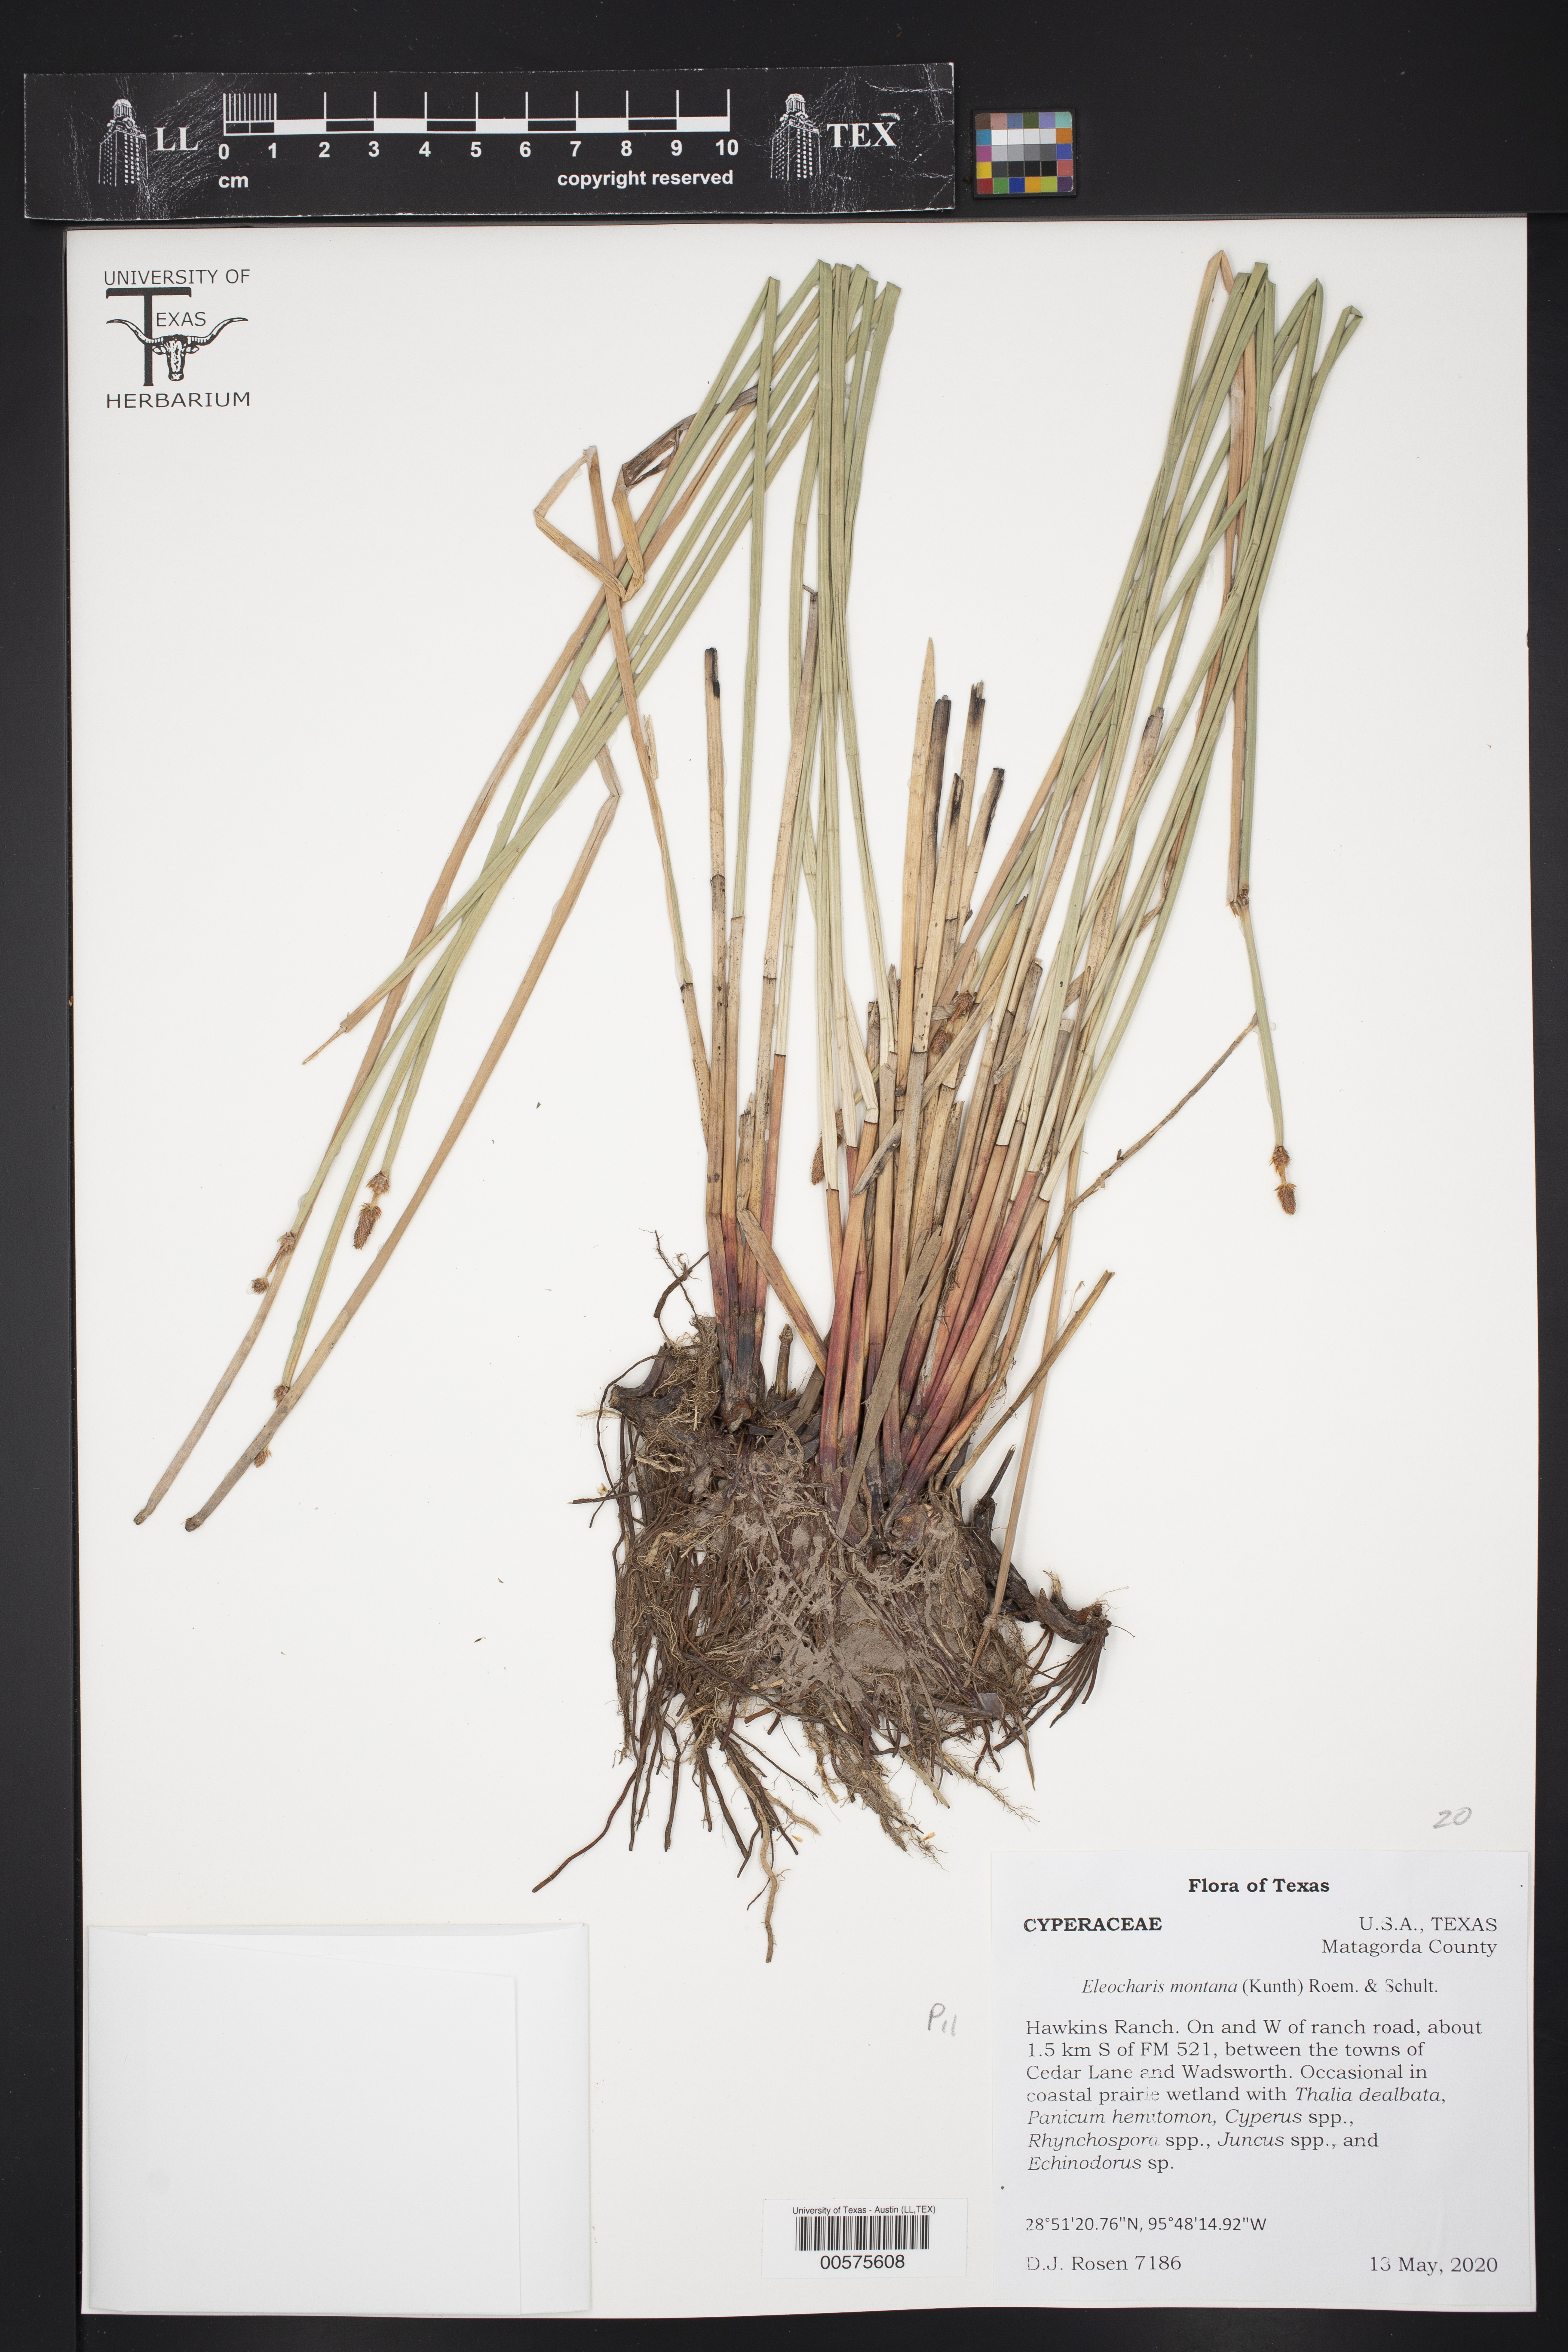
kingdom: Plantae
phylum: Tracheophyta
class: Liliopsida
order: Poales
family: Cyperaceae
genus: Eleocharis
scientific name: Eleocharis montana
